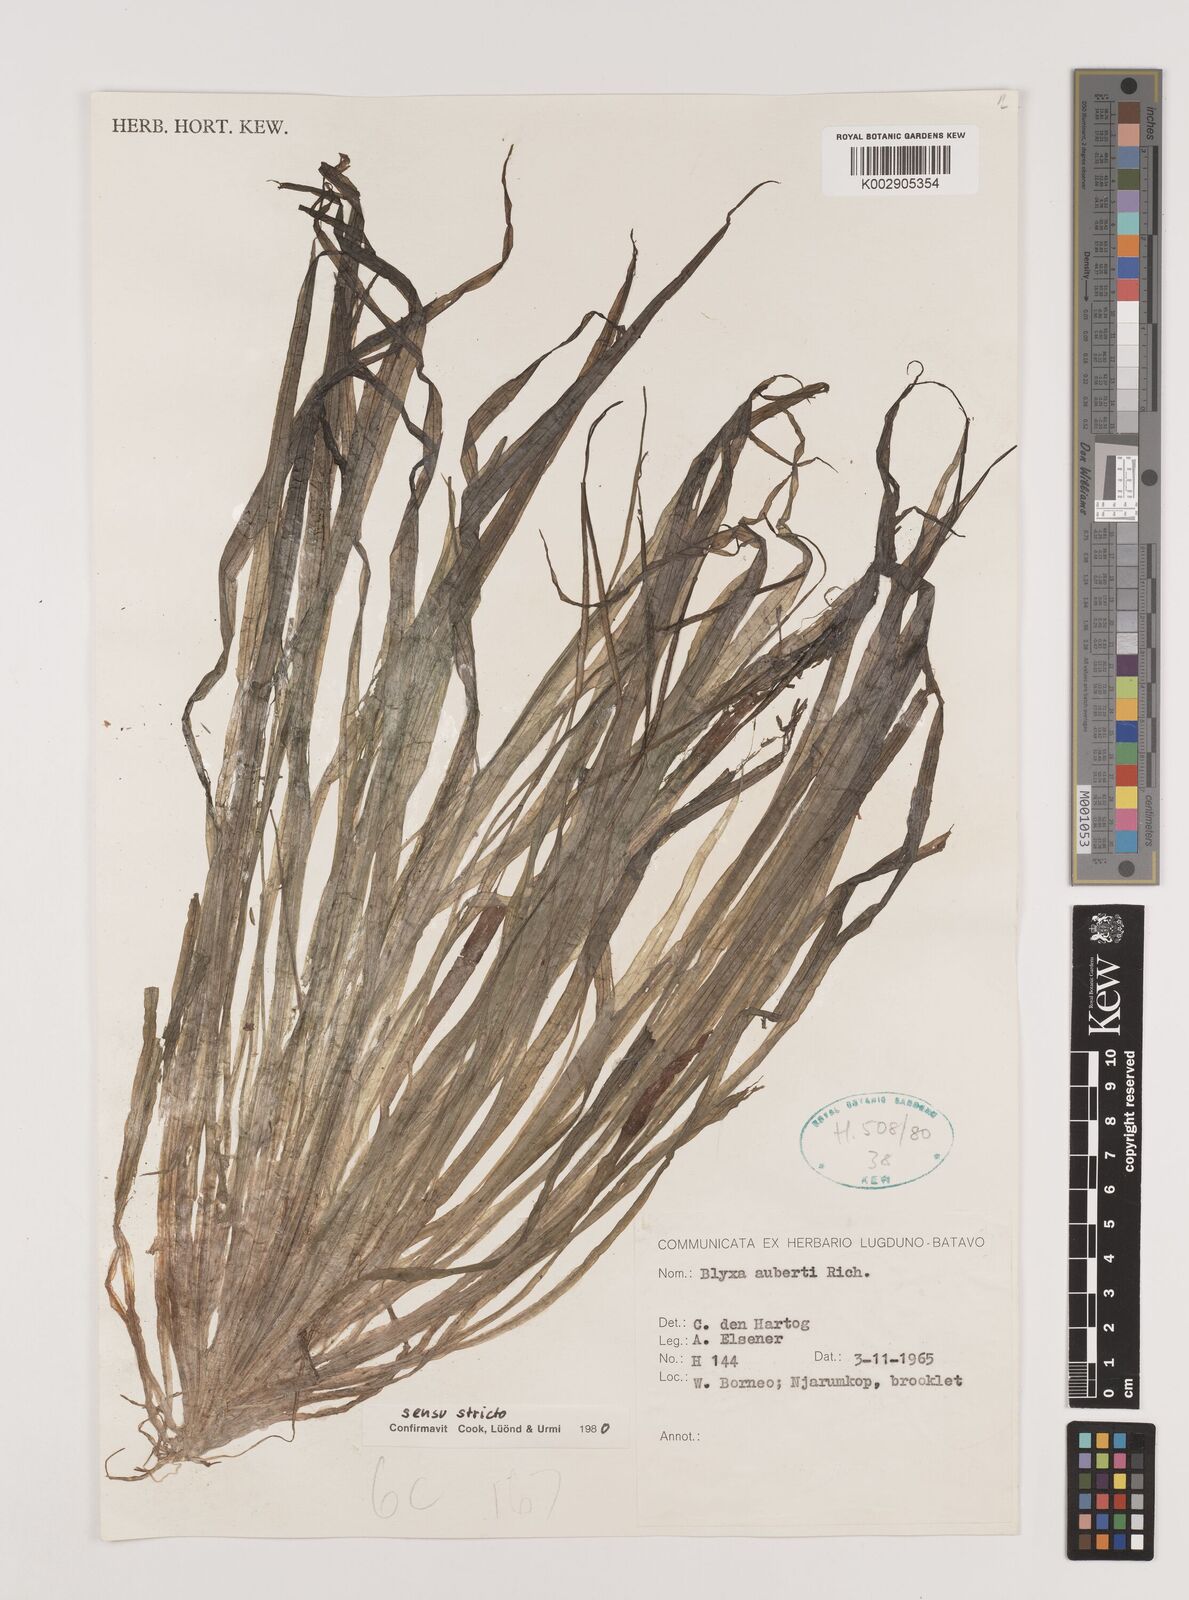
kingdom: Plantae
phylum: Tracheophyta
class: Liliopsida
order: Alismatales
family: Hydrocharitaceae
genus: Blyxa
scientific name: Blyxa aubertii
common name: Roundfruit blyxa
